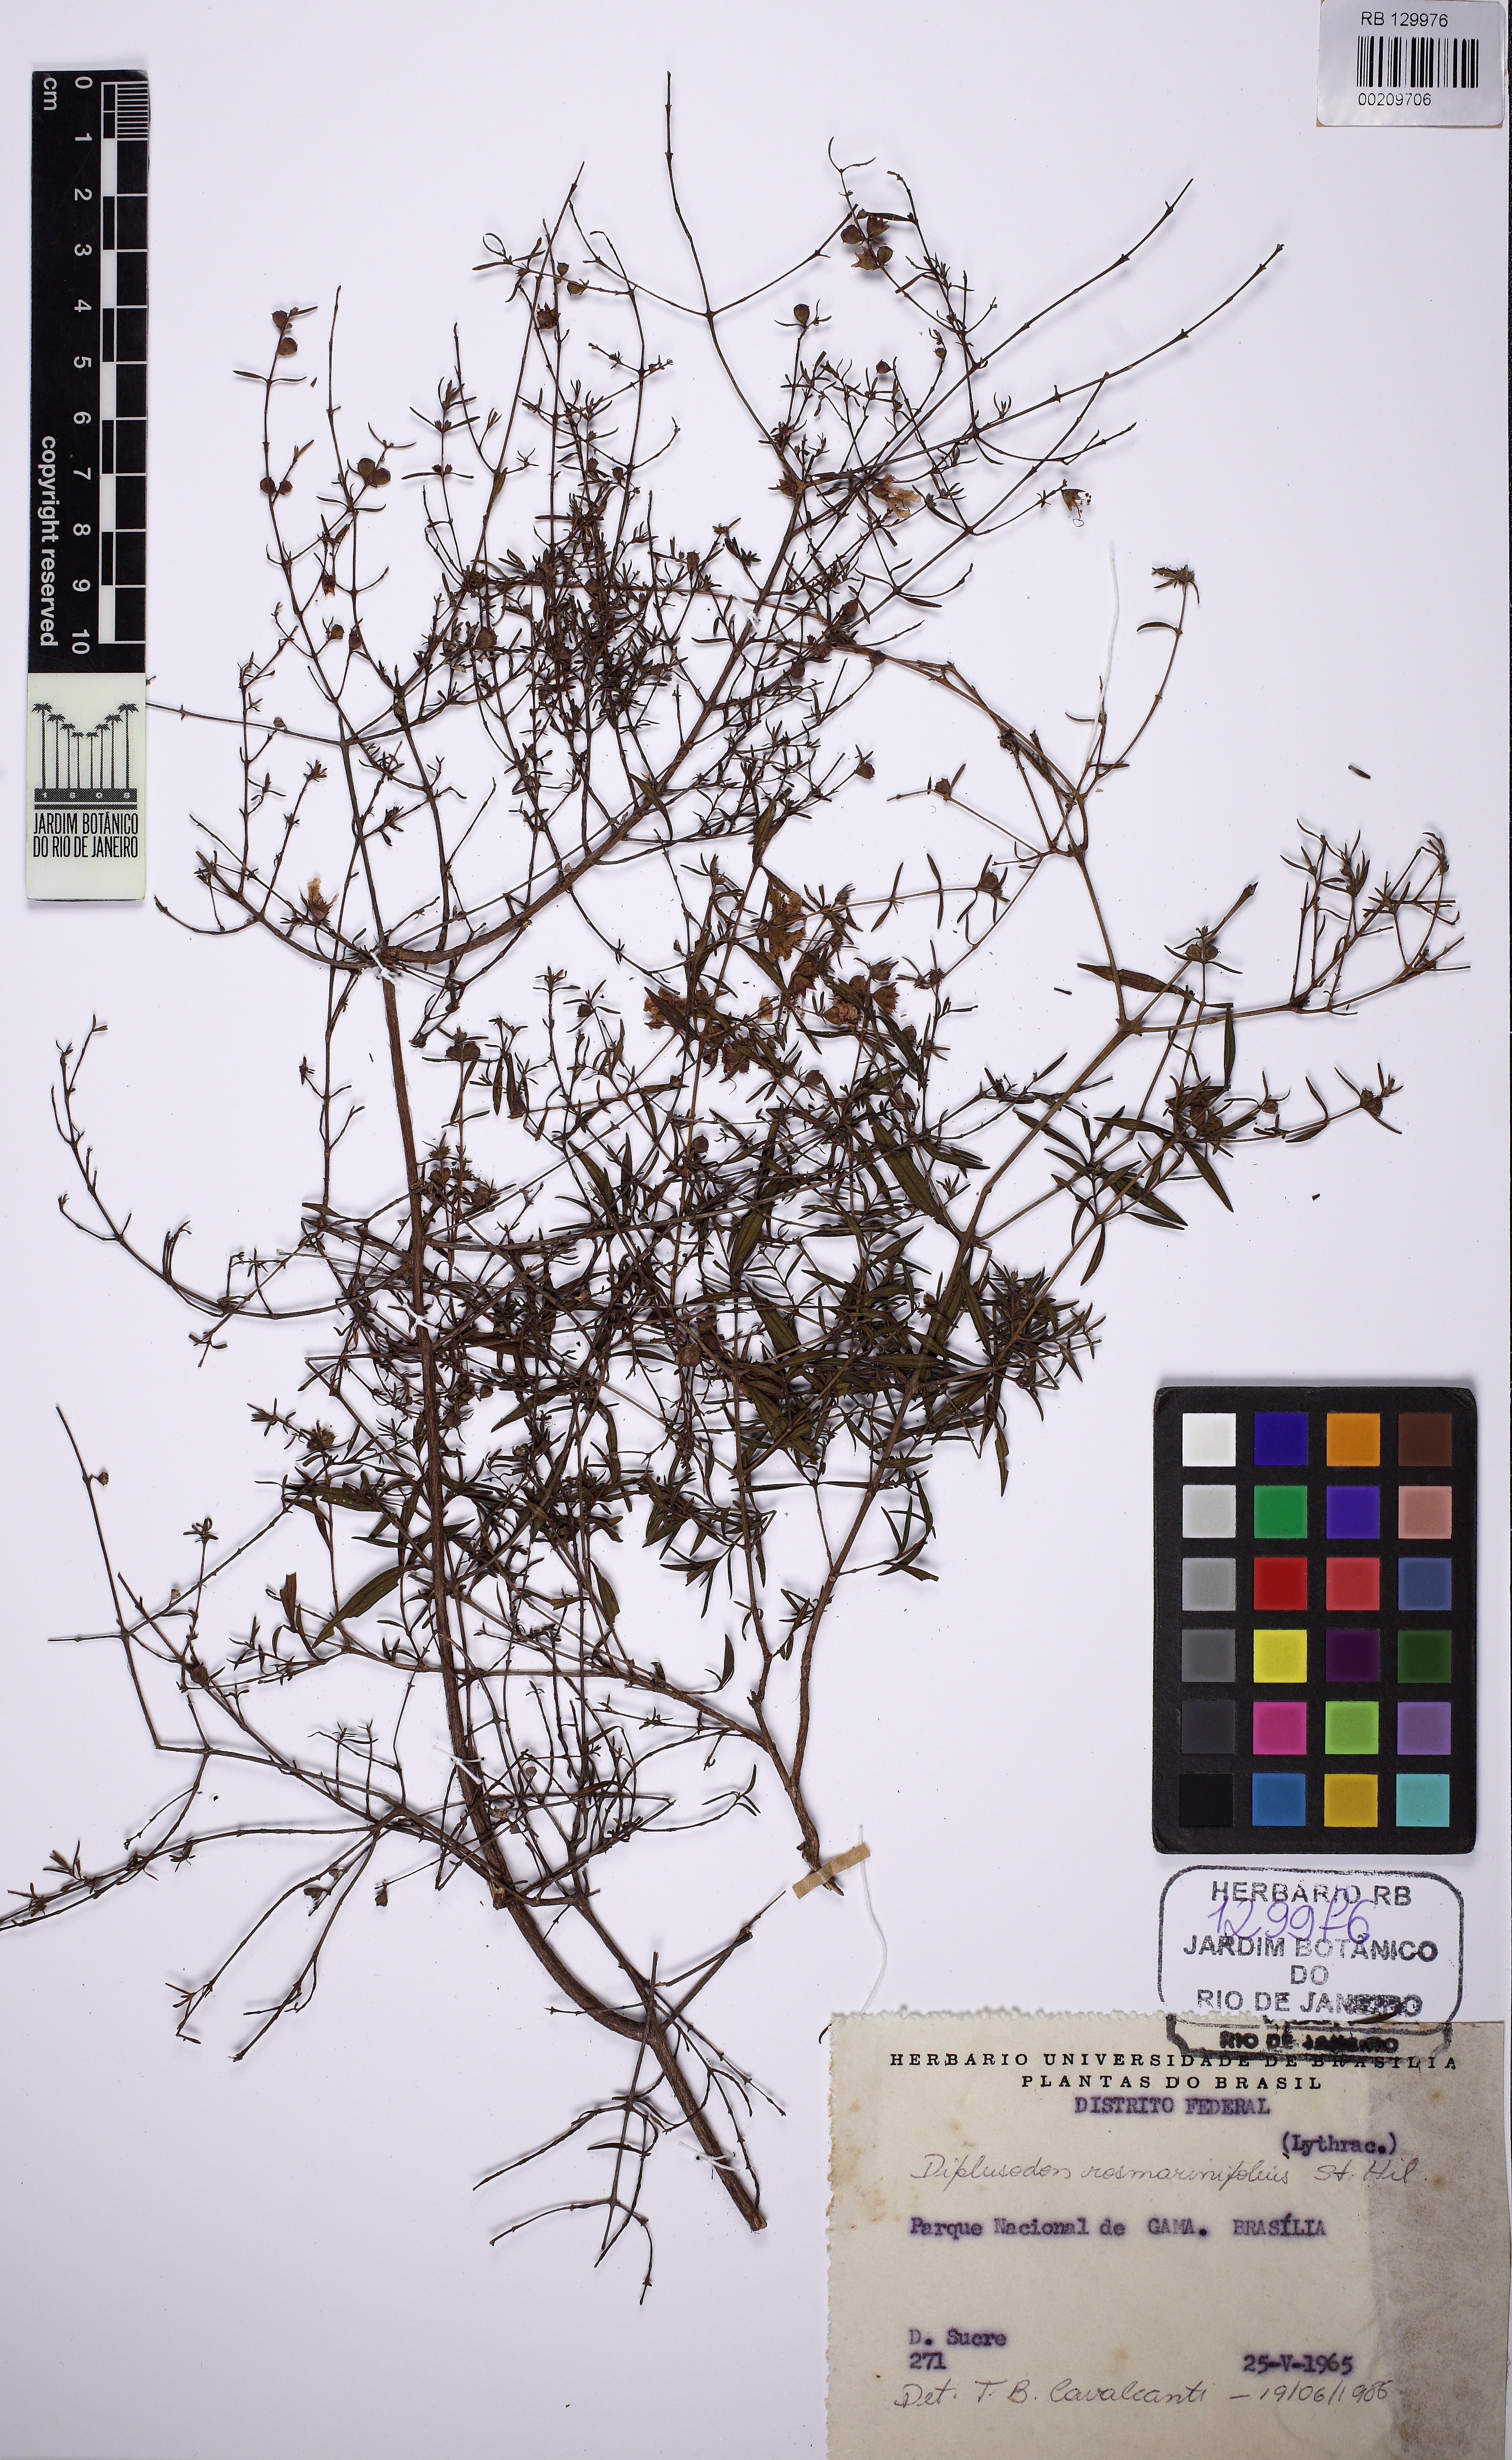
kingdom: Plantae
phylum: Tracheophyta
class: Magnoliopsida
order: Myrtales
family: Lythraceae
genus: Diplusodon
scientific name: Diplusodon rosmarinifolius
